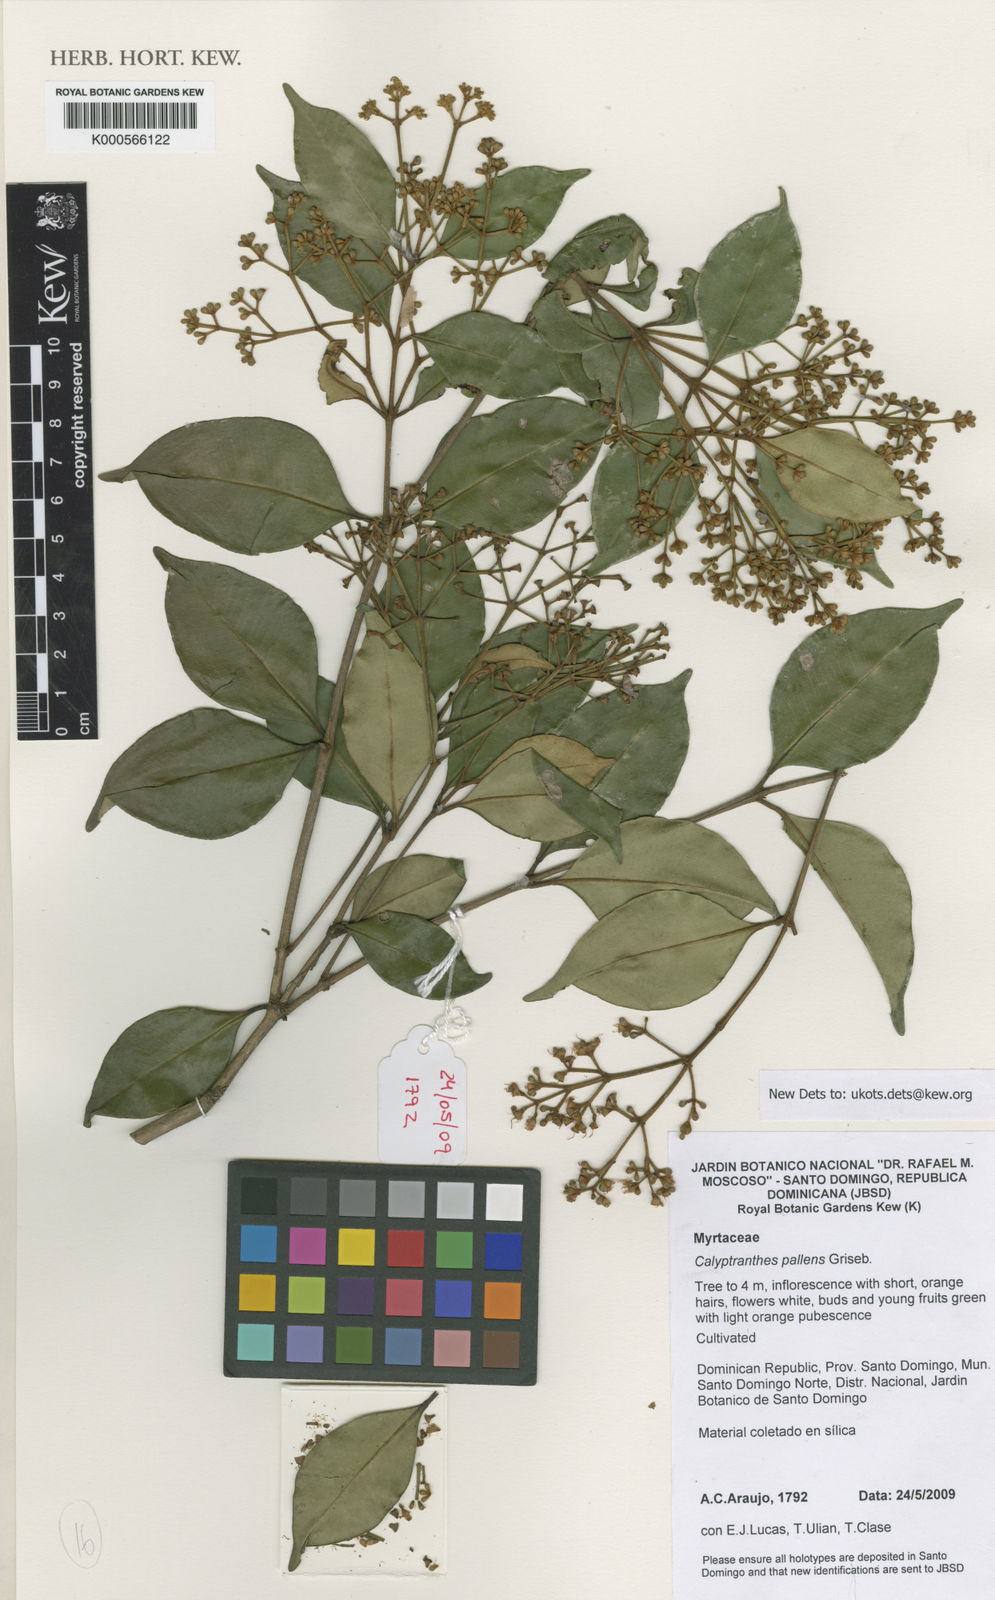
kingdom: Plantae
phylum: Tracheophyta
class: Magnoliopsida
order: Myrtales
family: Myrtaceae
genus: Myrcia
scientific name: Myrcia neopallens
